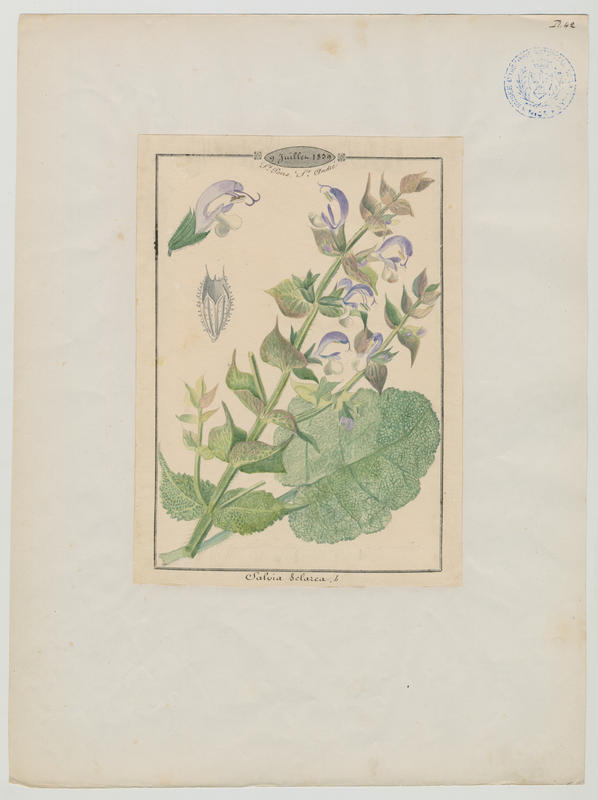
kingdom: Plantae
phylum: Tracheophyta
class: Magnoliopsida
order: Lamiales
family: Lamiaceae
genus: Salvia
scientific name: Salvia sclarea
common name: Clary
